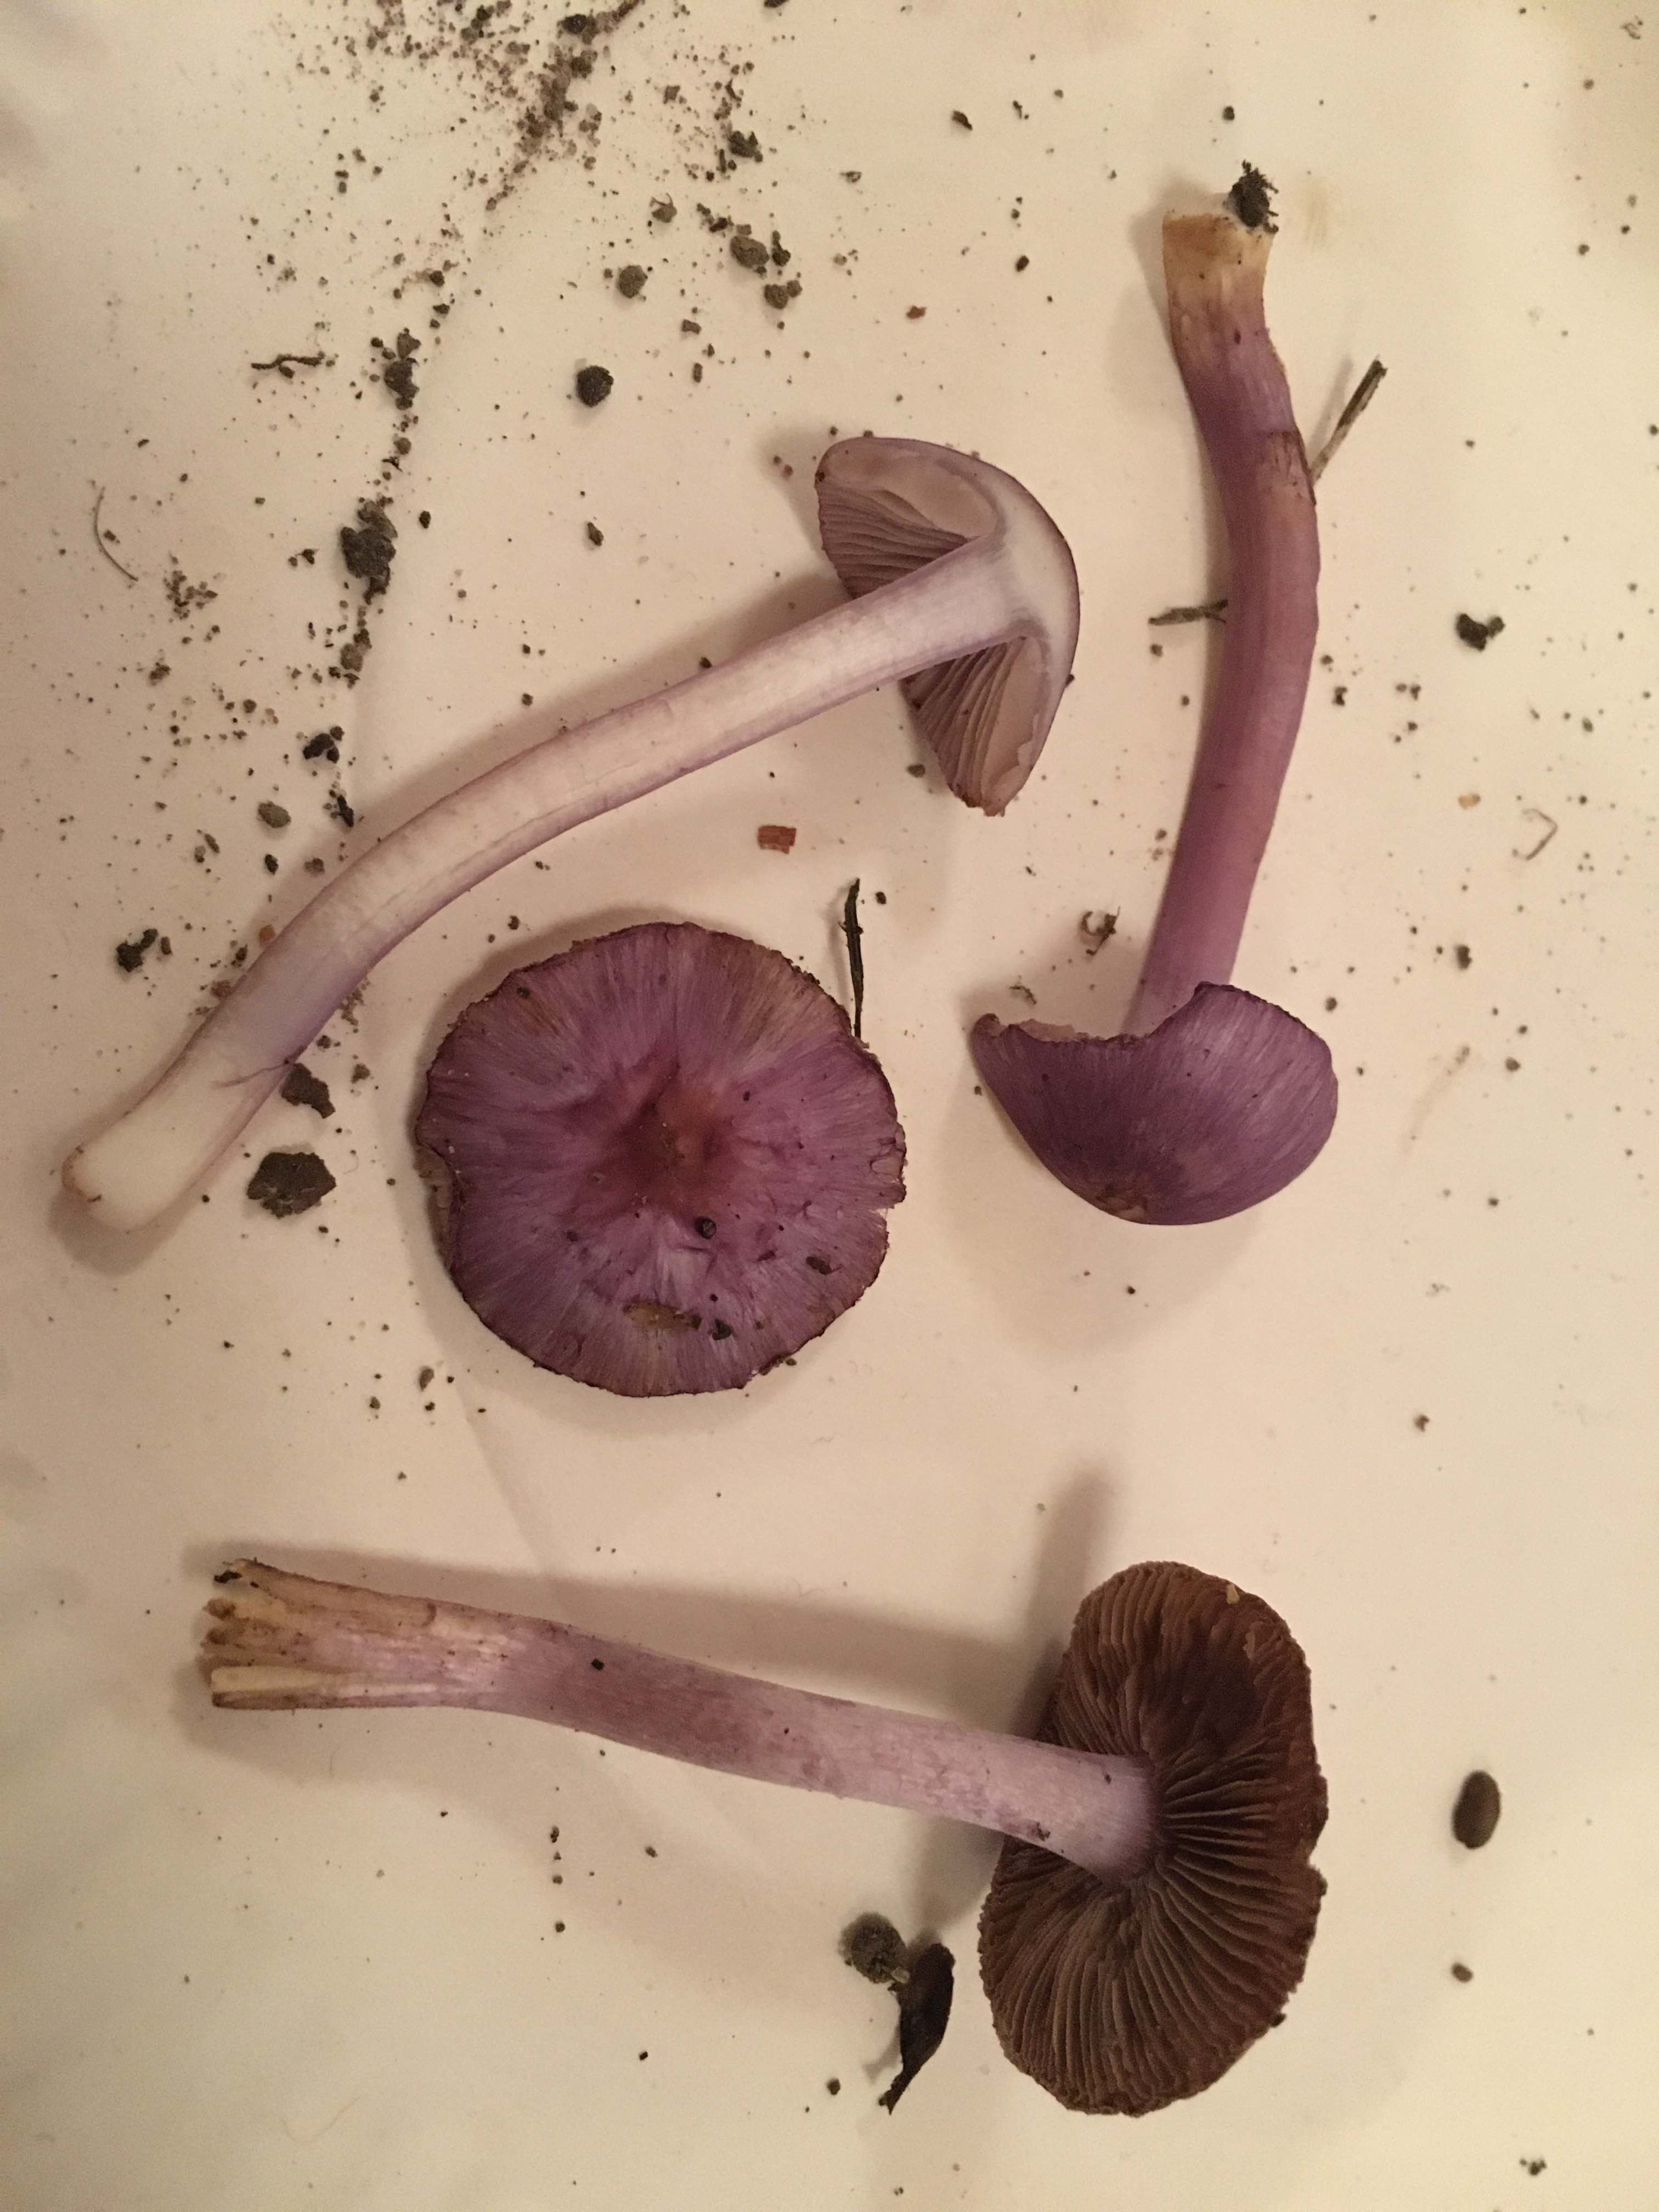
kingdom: Fungi
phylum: Basidiomycota
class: Agaricomycetes
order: Agaricales
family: Inocybaceae
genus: Inocybe
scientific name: Inocybe geophylla
